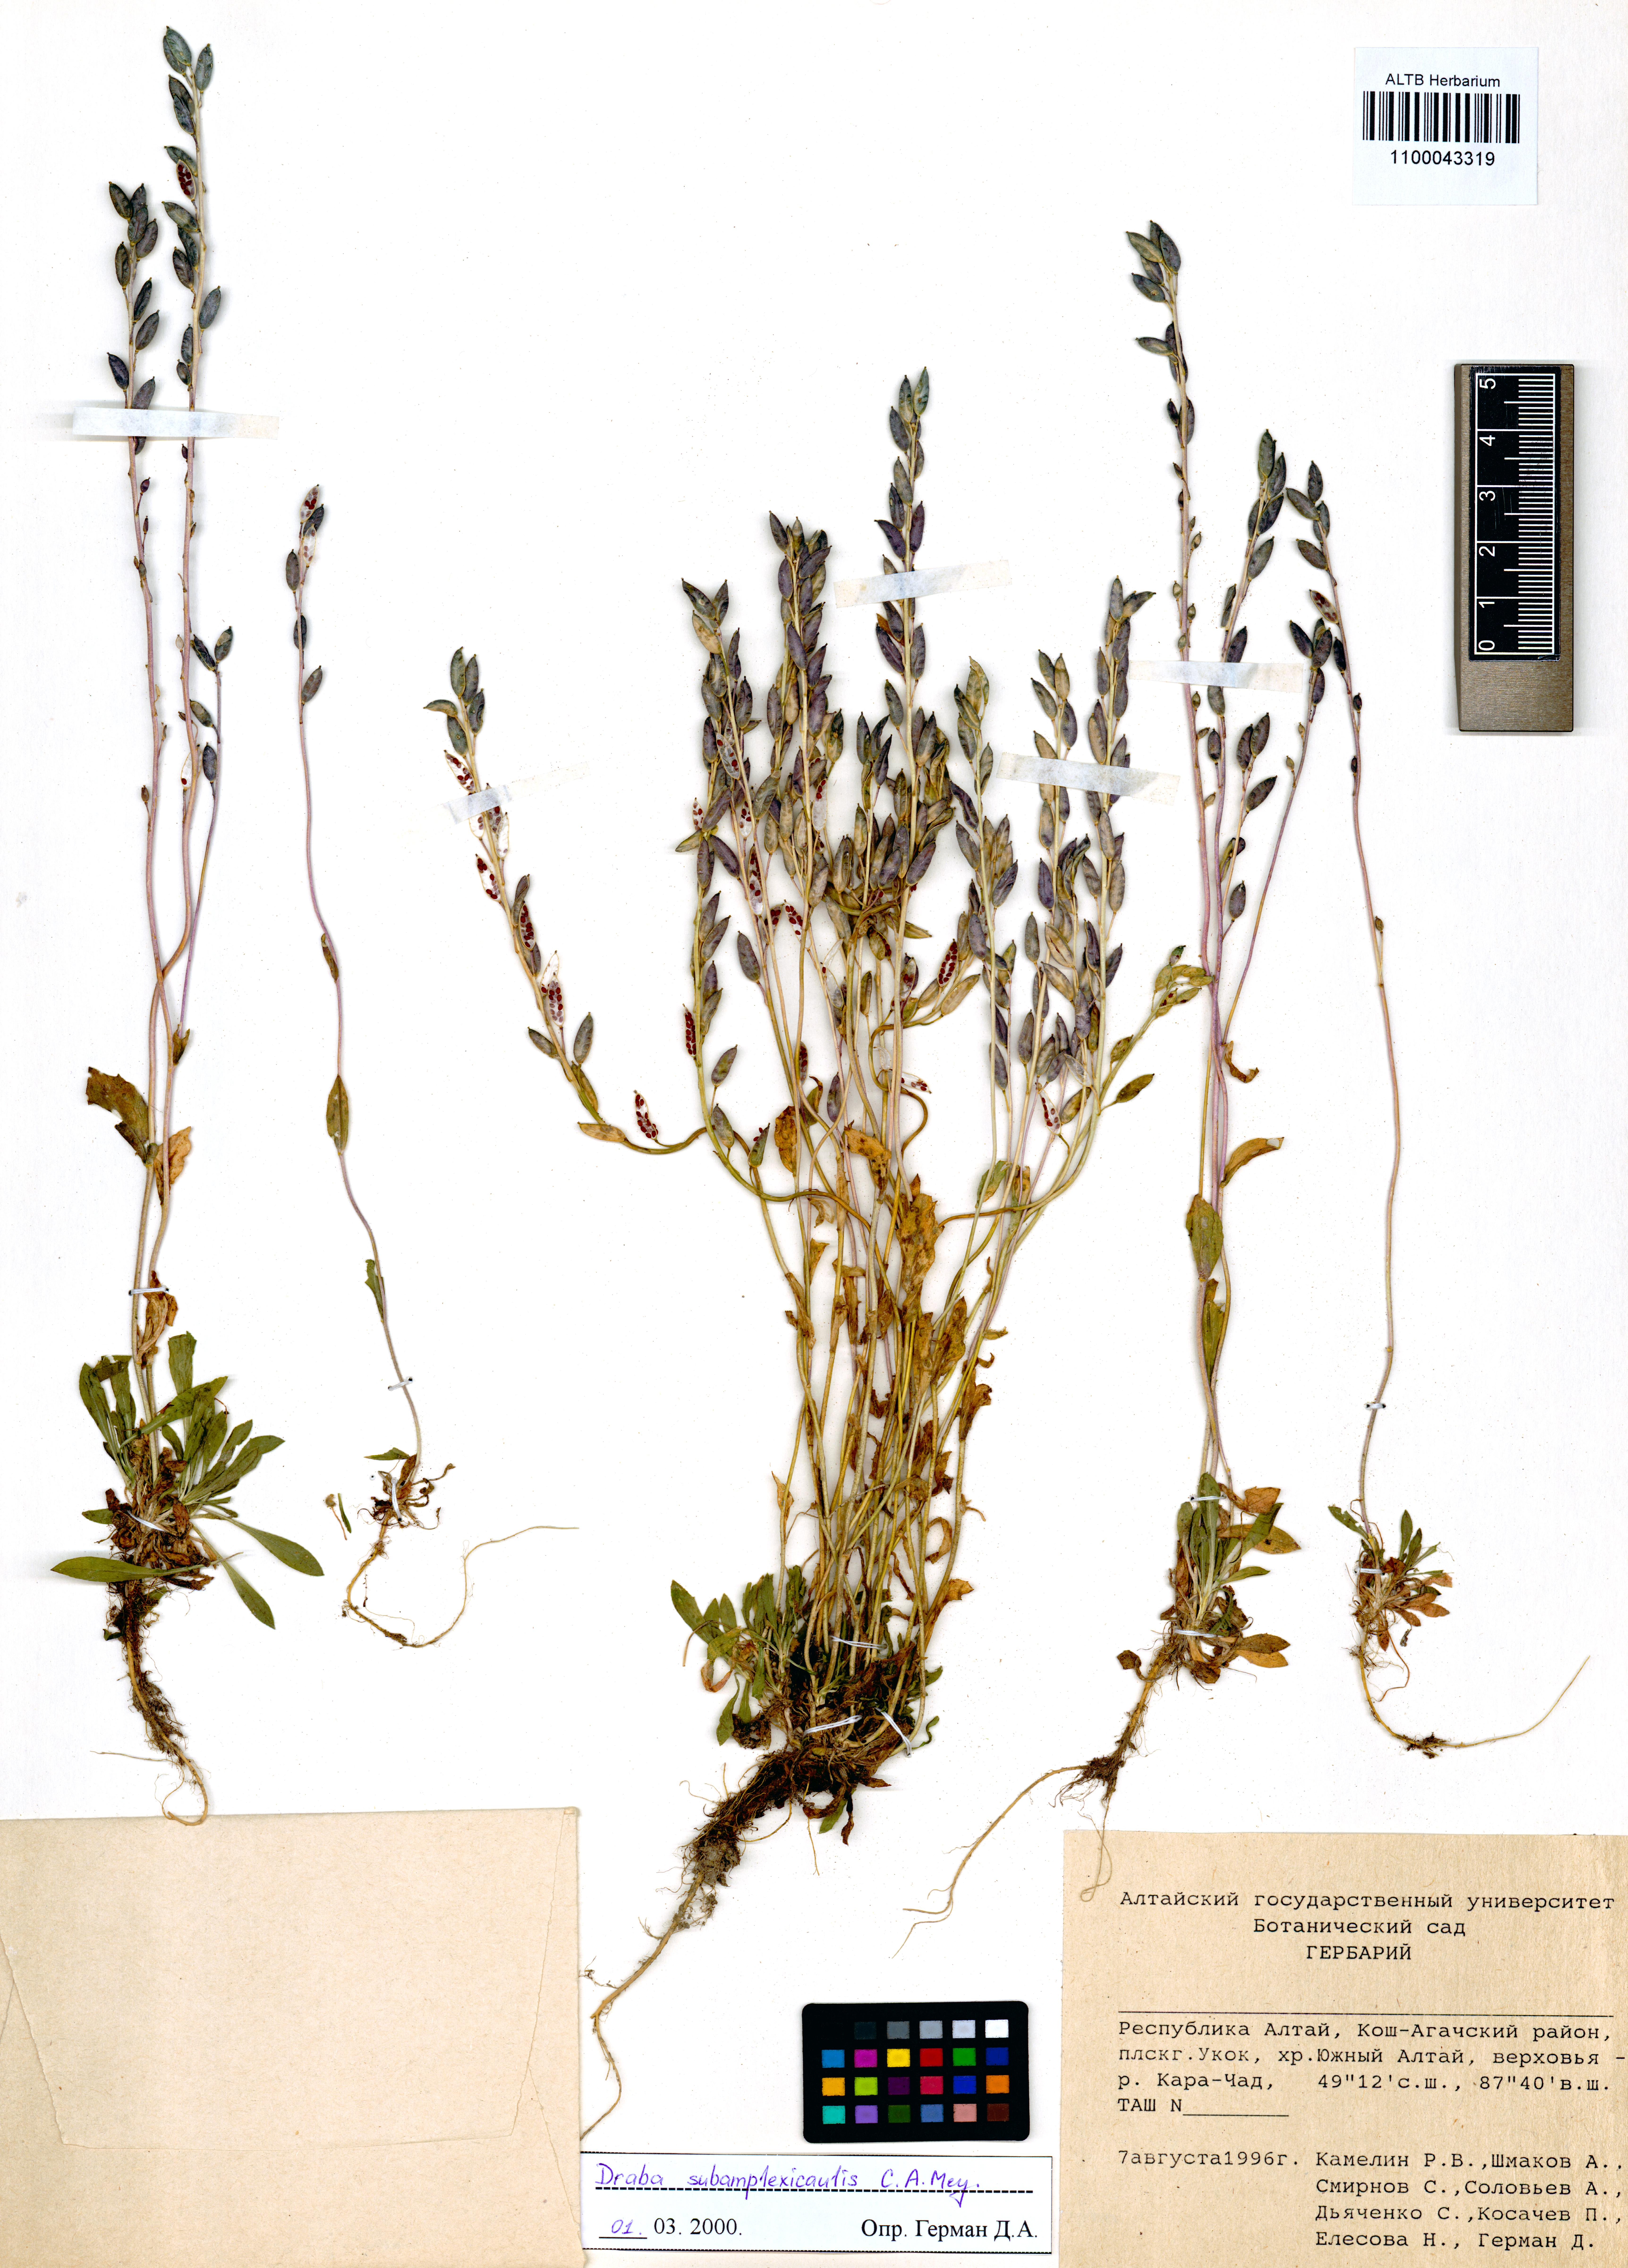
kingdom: Plantae
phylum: Tracheophyta
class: Magnoliopsida
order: Brassicales
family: Brassicaceae
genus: Draba
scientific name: Draba subamplexicaulis
